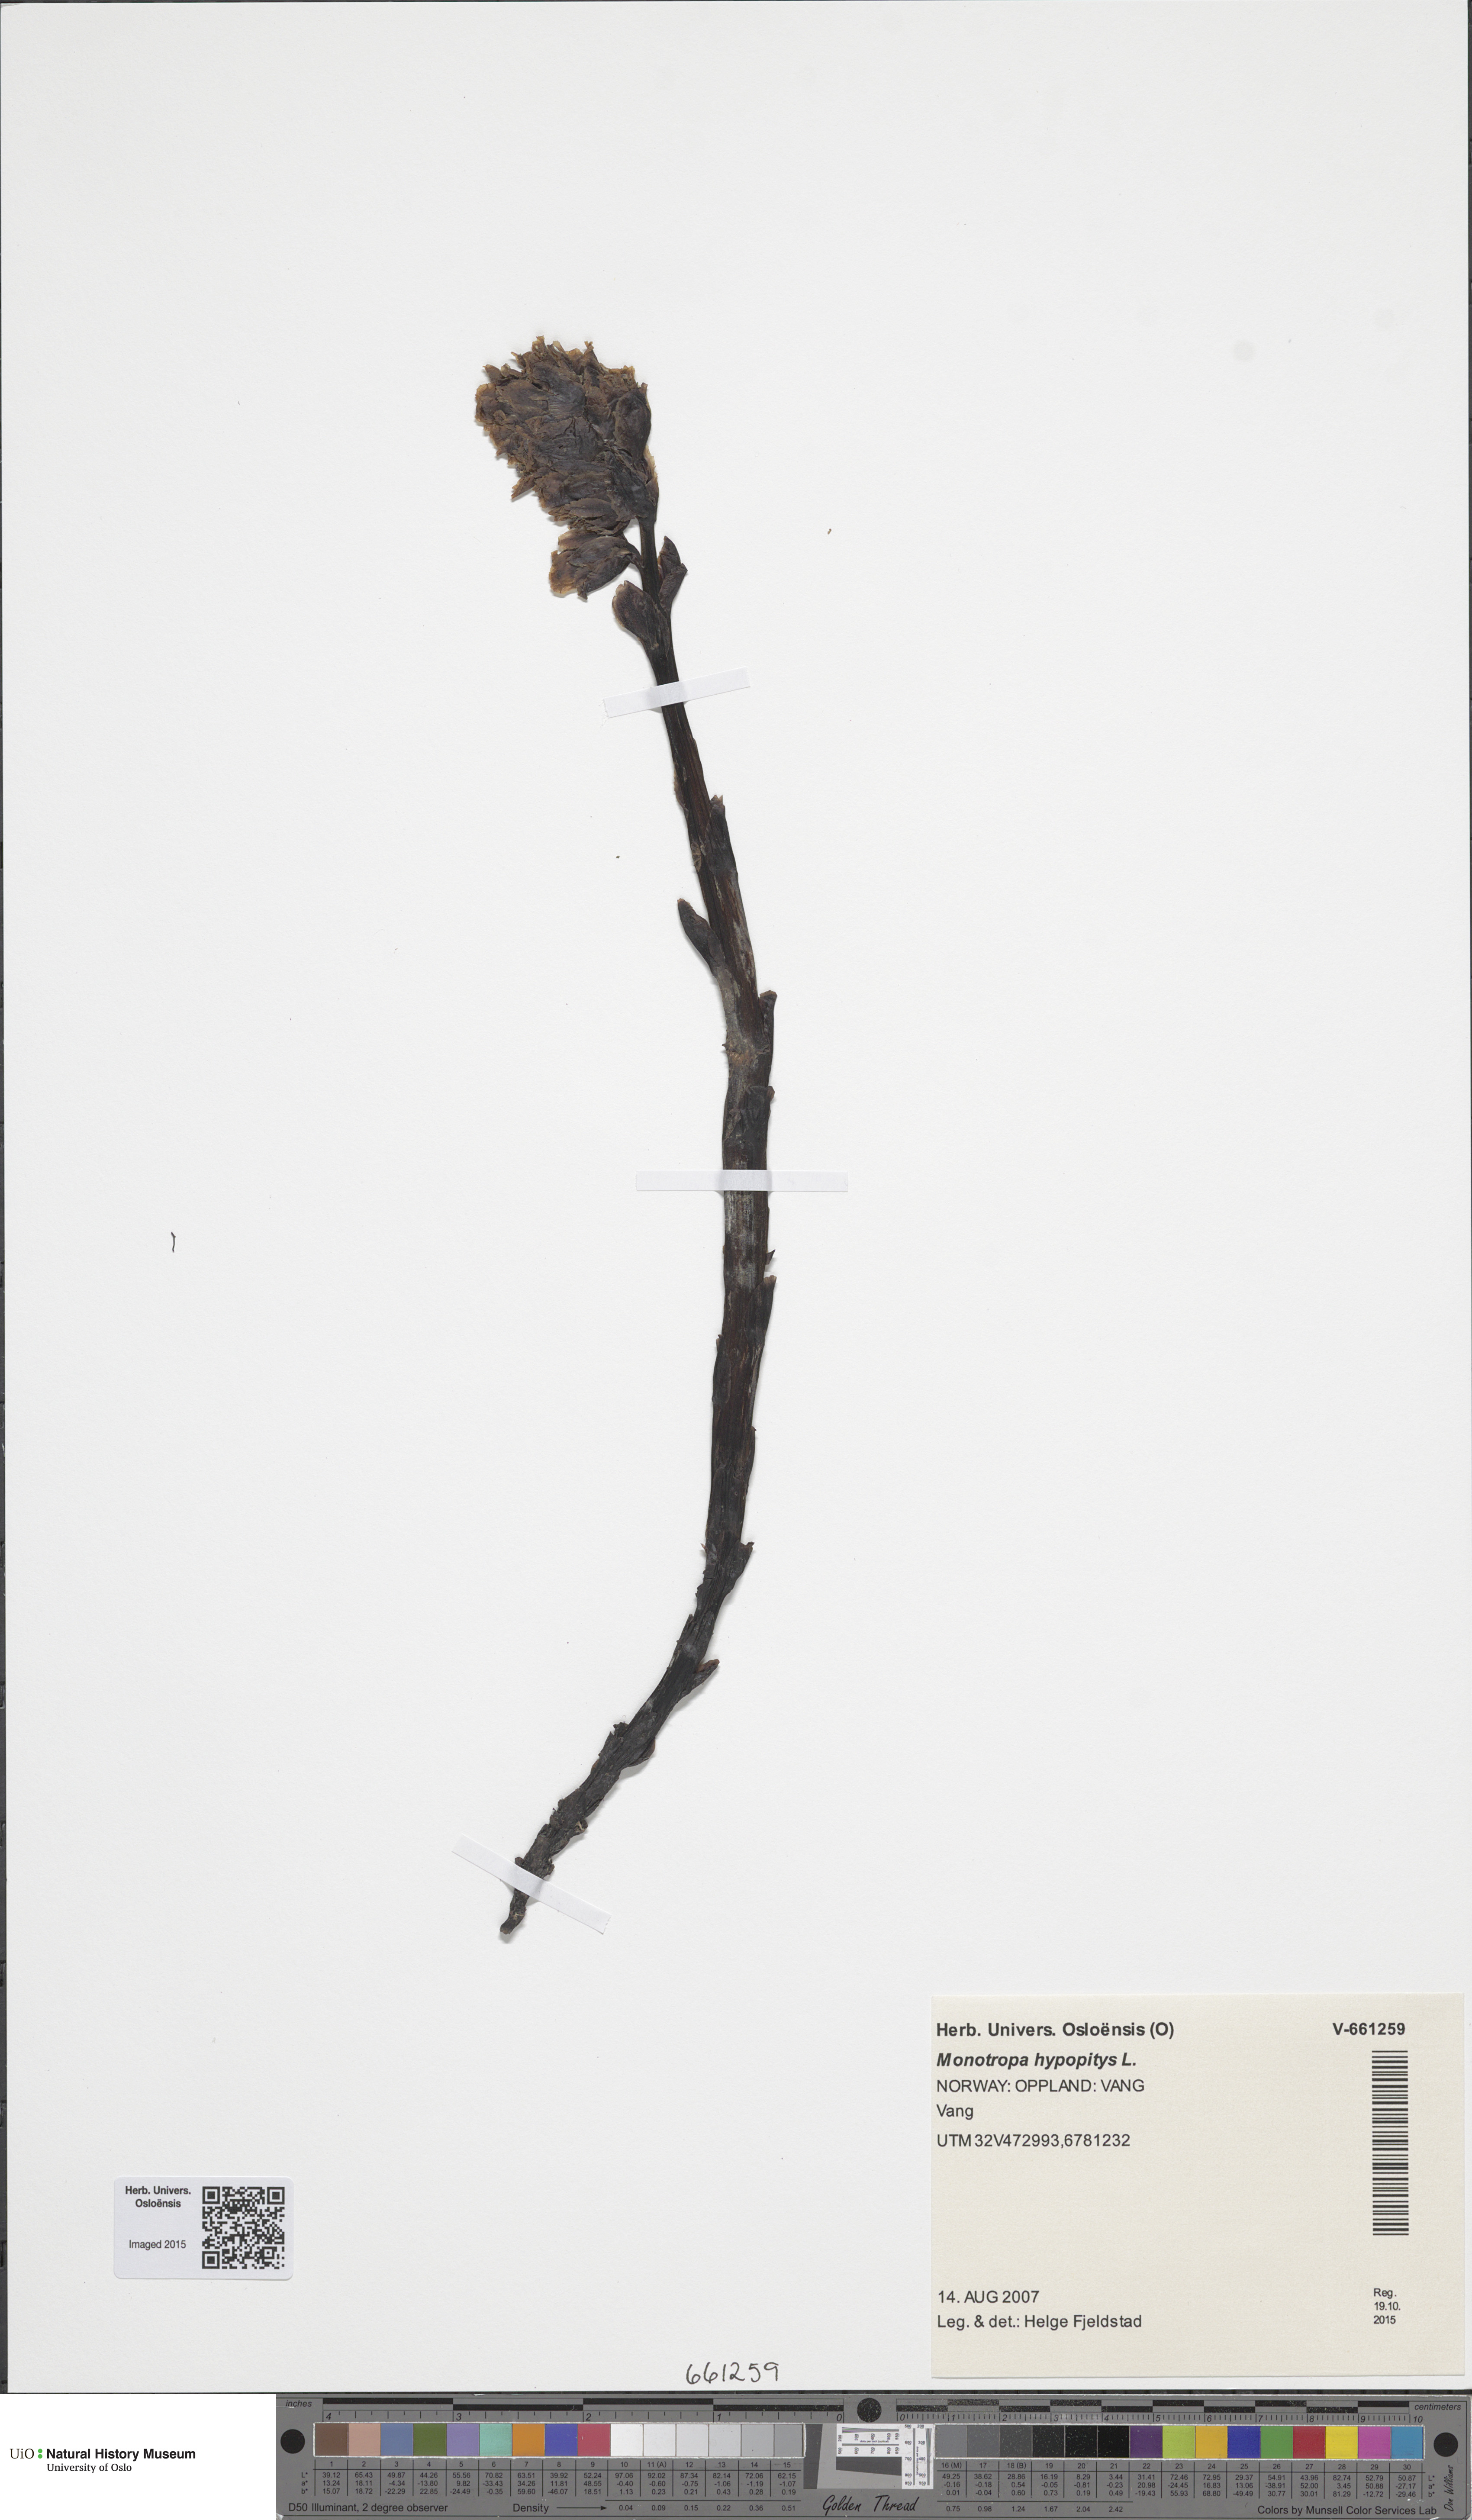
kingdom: Plantae
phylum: Tracheophyta
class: Magnoliopsida
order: Ericales
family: Ericaceae
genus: Hypopitys
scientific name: Hypopitys monotropa
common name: Yellow bird's-nest
